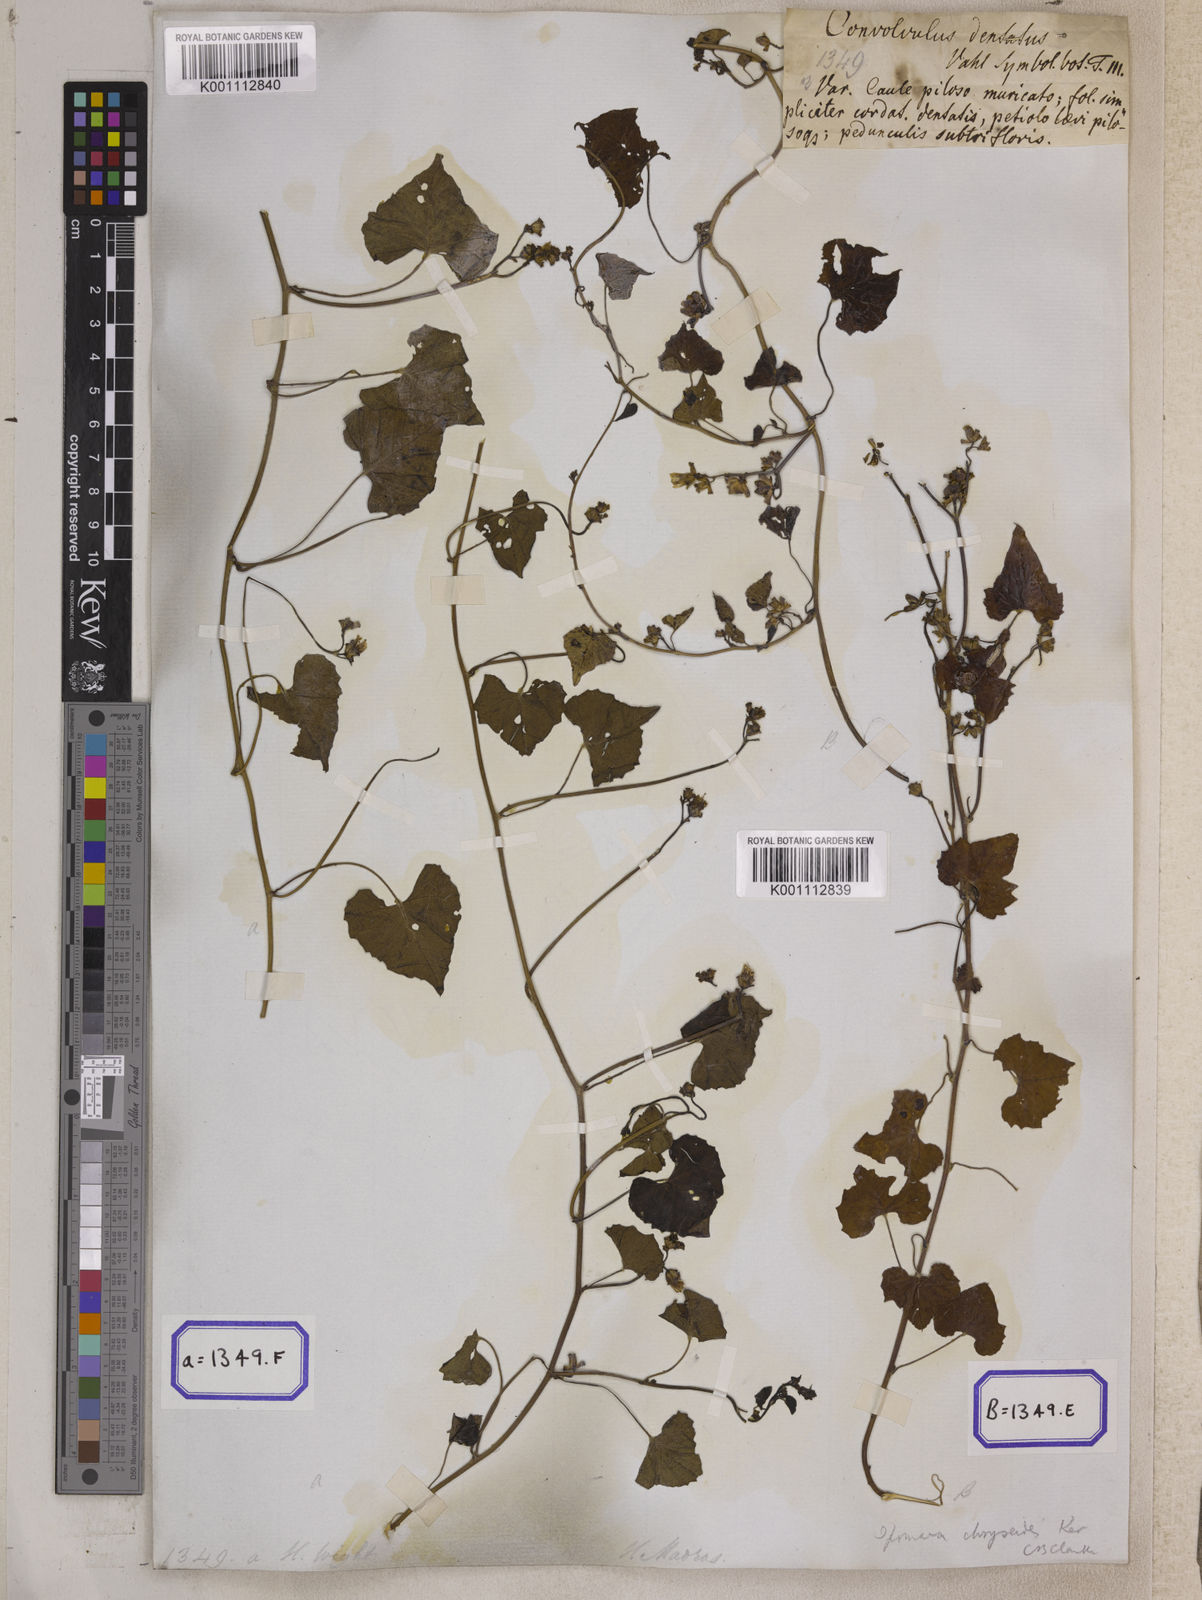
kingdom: Plantae
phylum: Tracheophyta
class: Magnoliopsida
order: Solanales
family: Convolvulaceae
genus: Merremia
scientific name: Merremia hederacea
